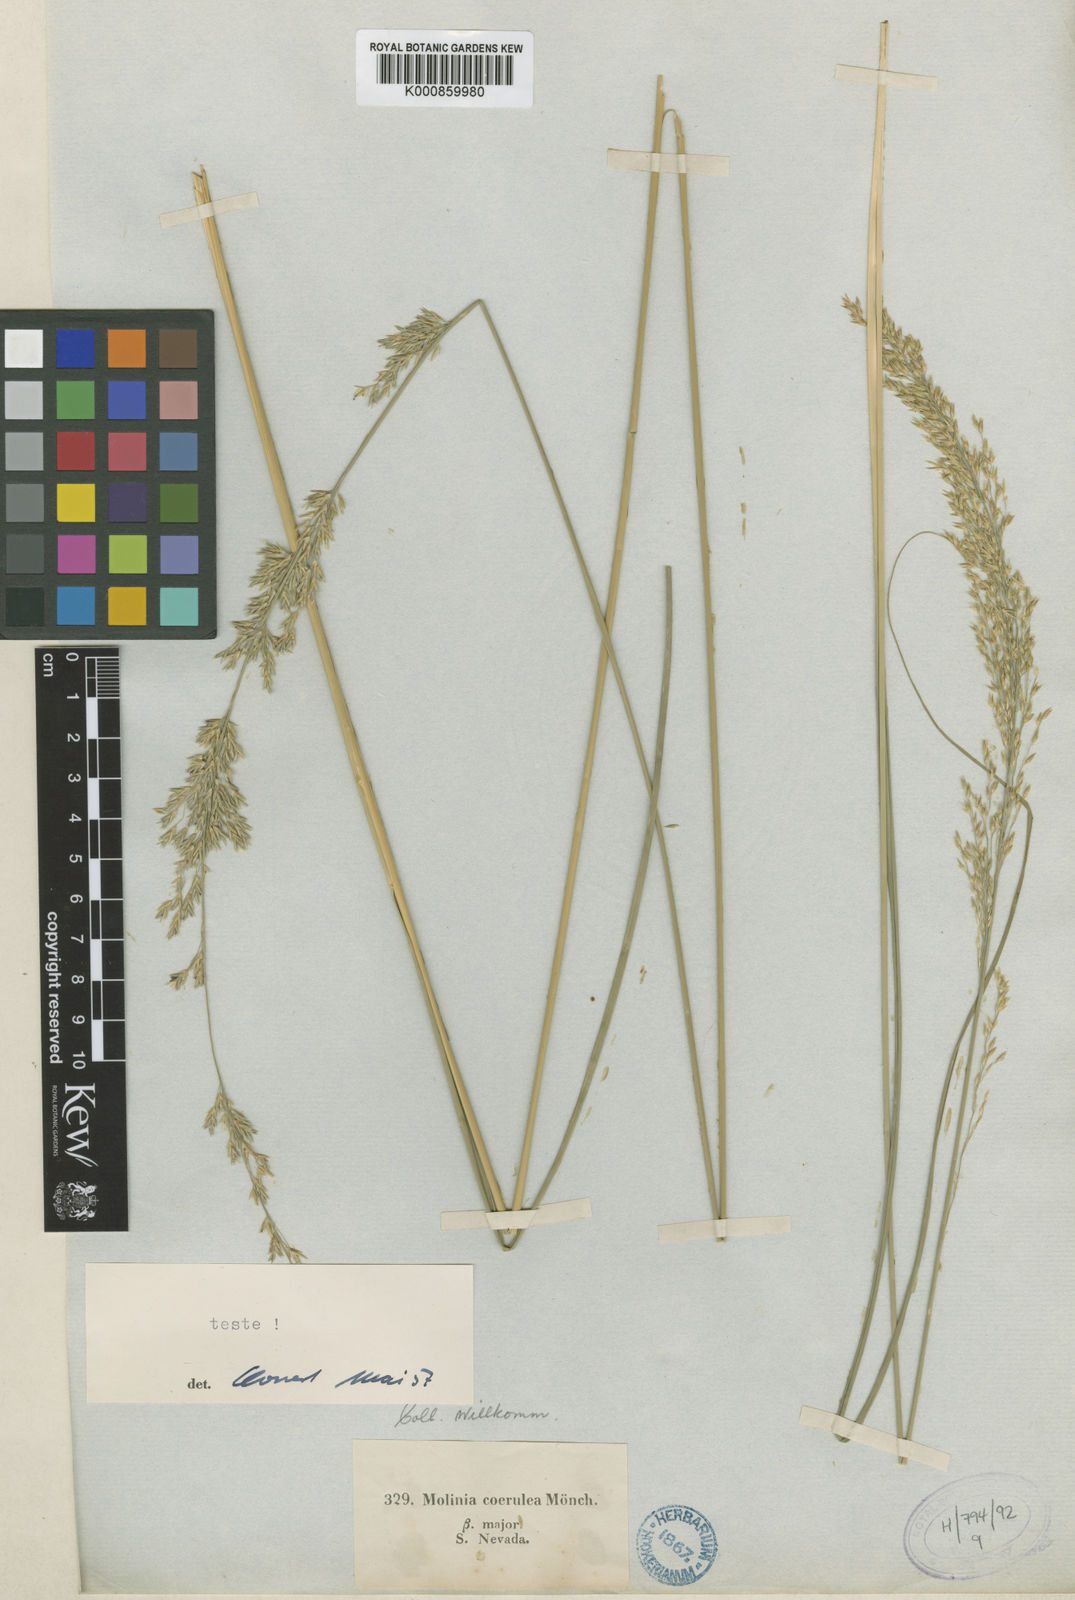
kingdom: Plantae
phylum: Tracheophyta
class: Liliopsida
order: Poales
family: Poaceae
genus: Molinia
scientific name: Molinia caerulea
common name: Purple moor-grass
